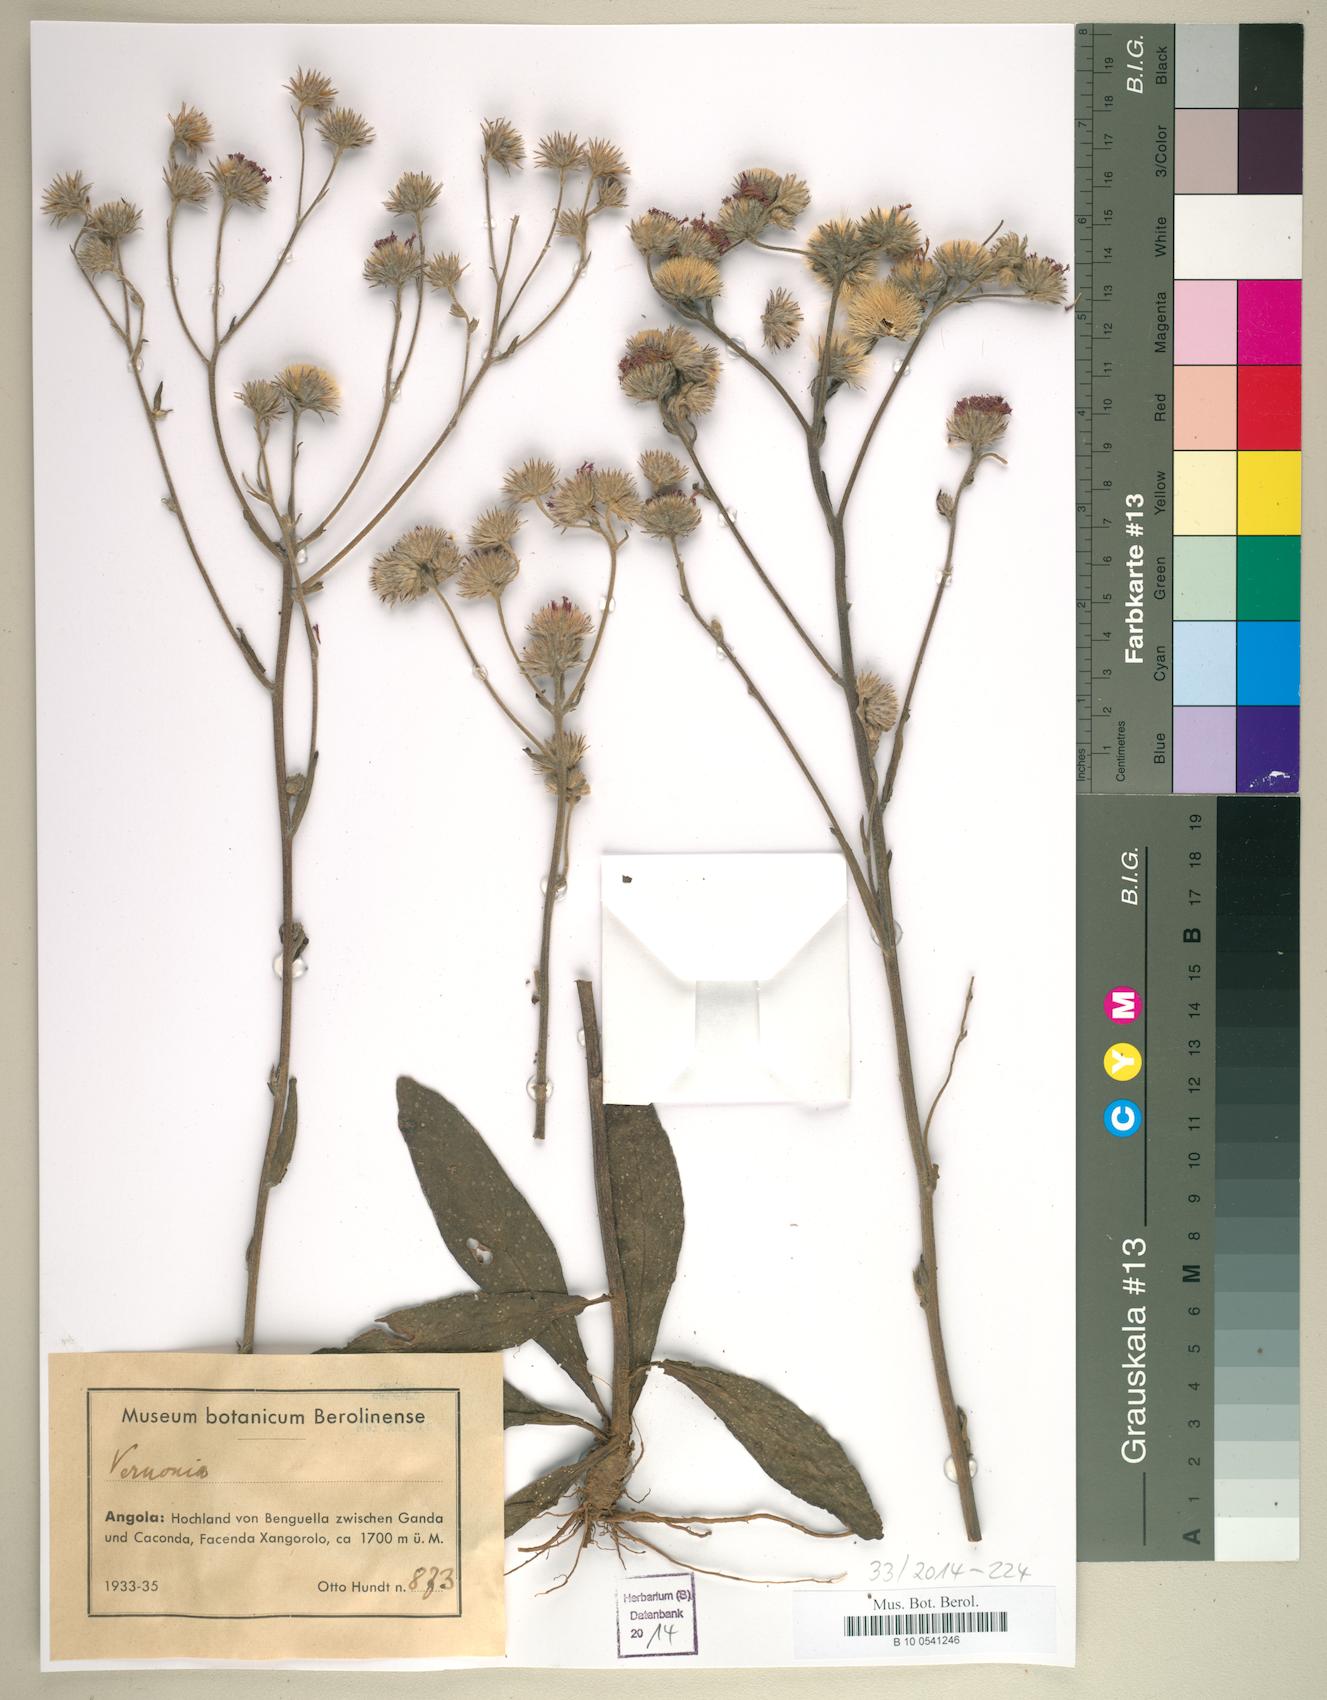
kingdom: Plantae
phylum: Tracheophyta
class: Magnoliopsida
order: Asterales
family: Asteraceae
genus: Vernonia
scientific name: Vernonia
